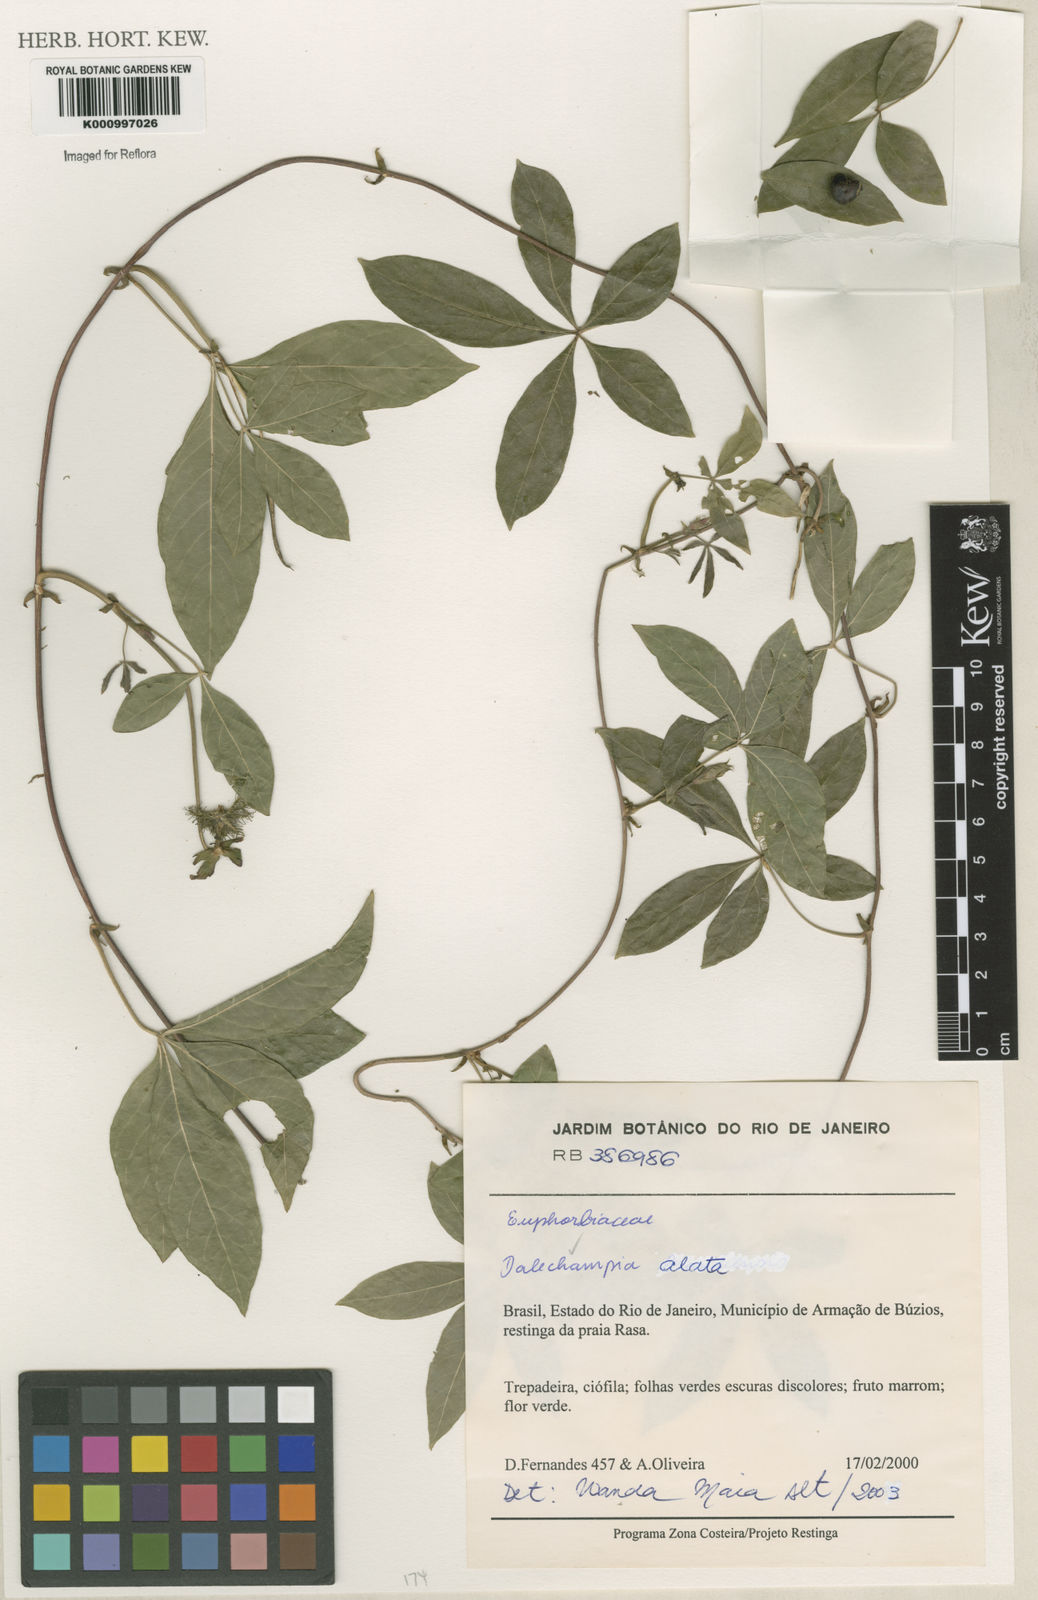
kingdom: Plantae
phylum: Tracheophyta
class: Magnoliopsida
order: Malpighiales
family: Euphorbiaceae
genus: Dalechampia
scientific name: Dalechampia alata
